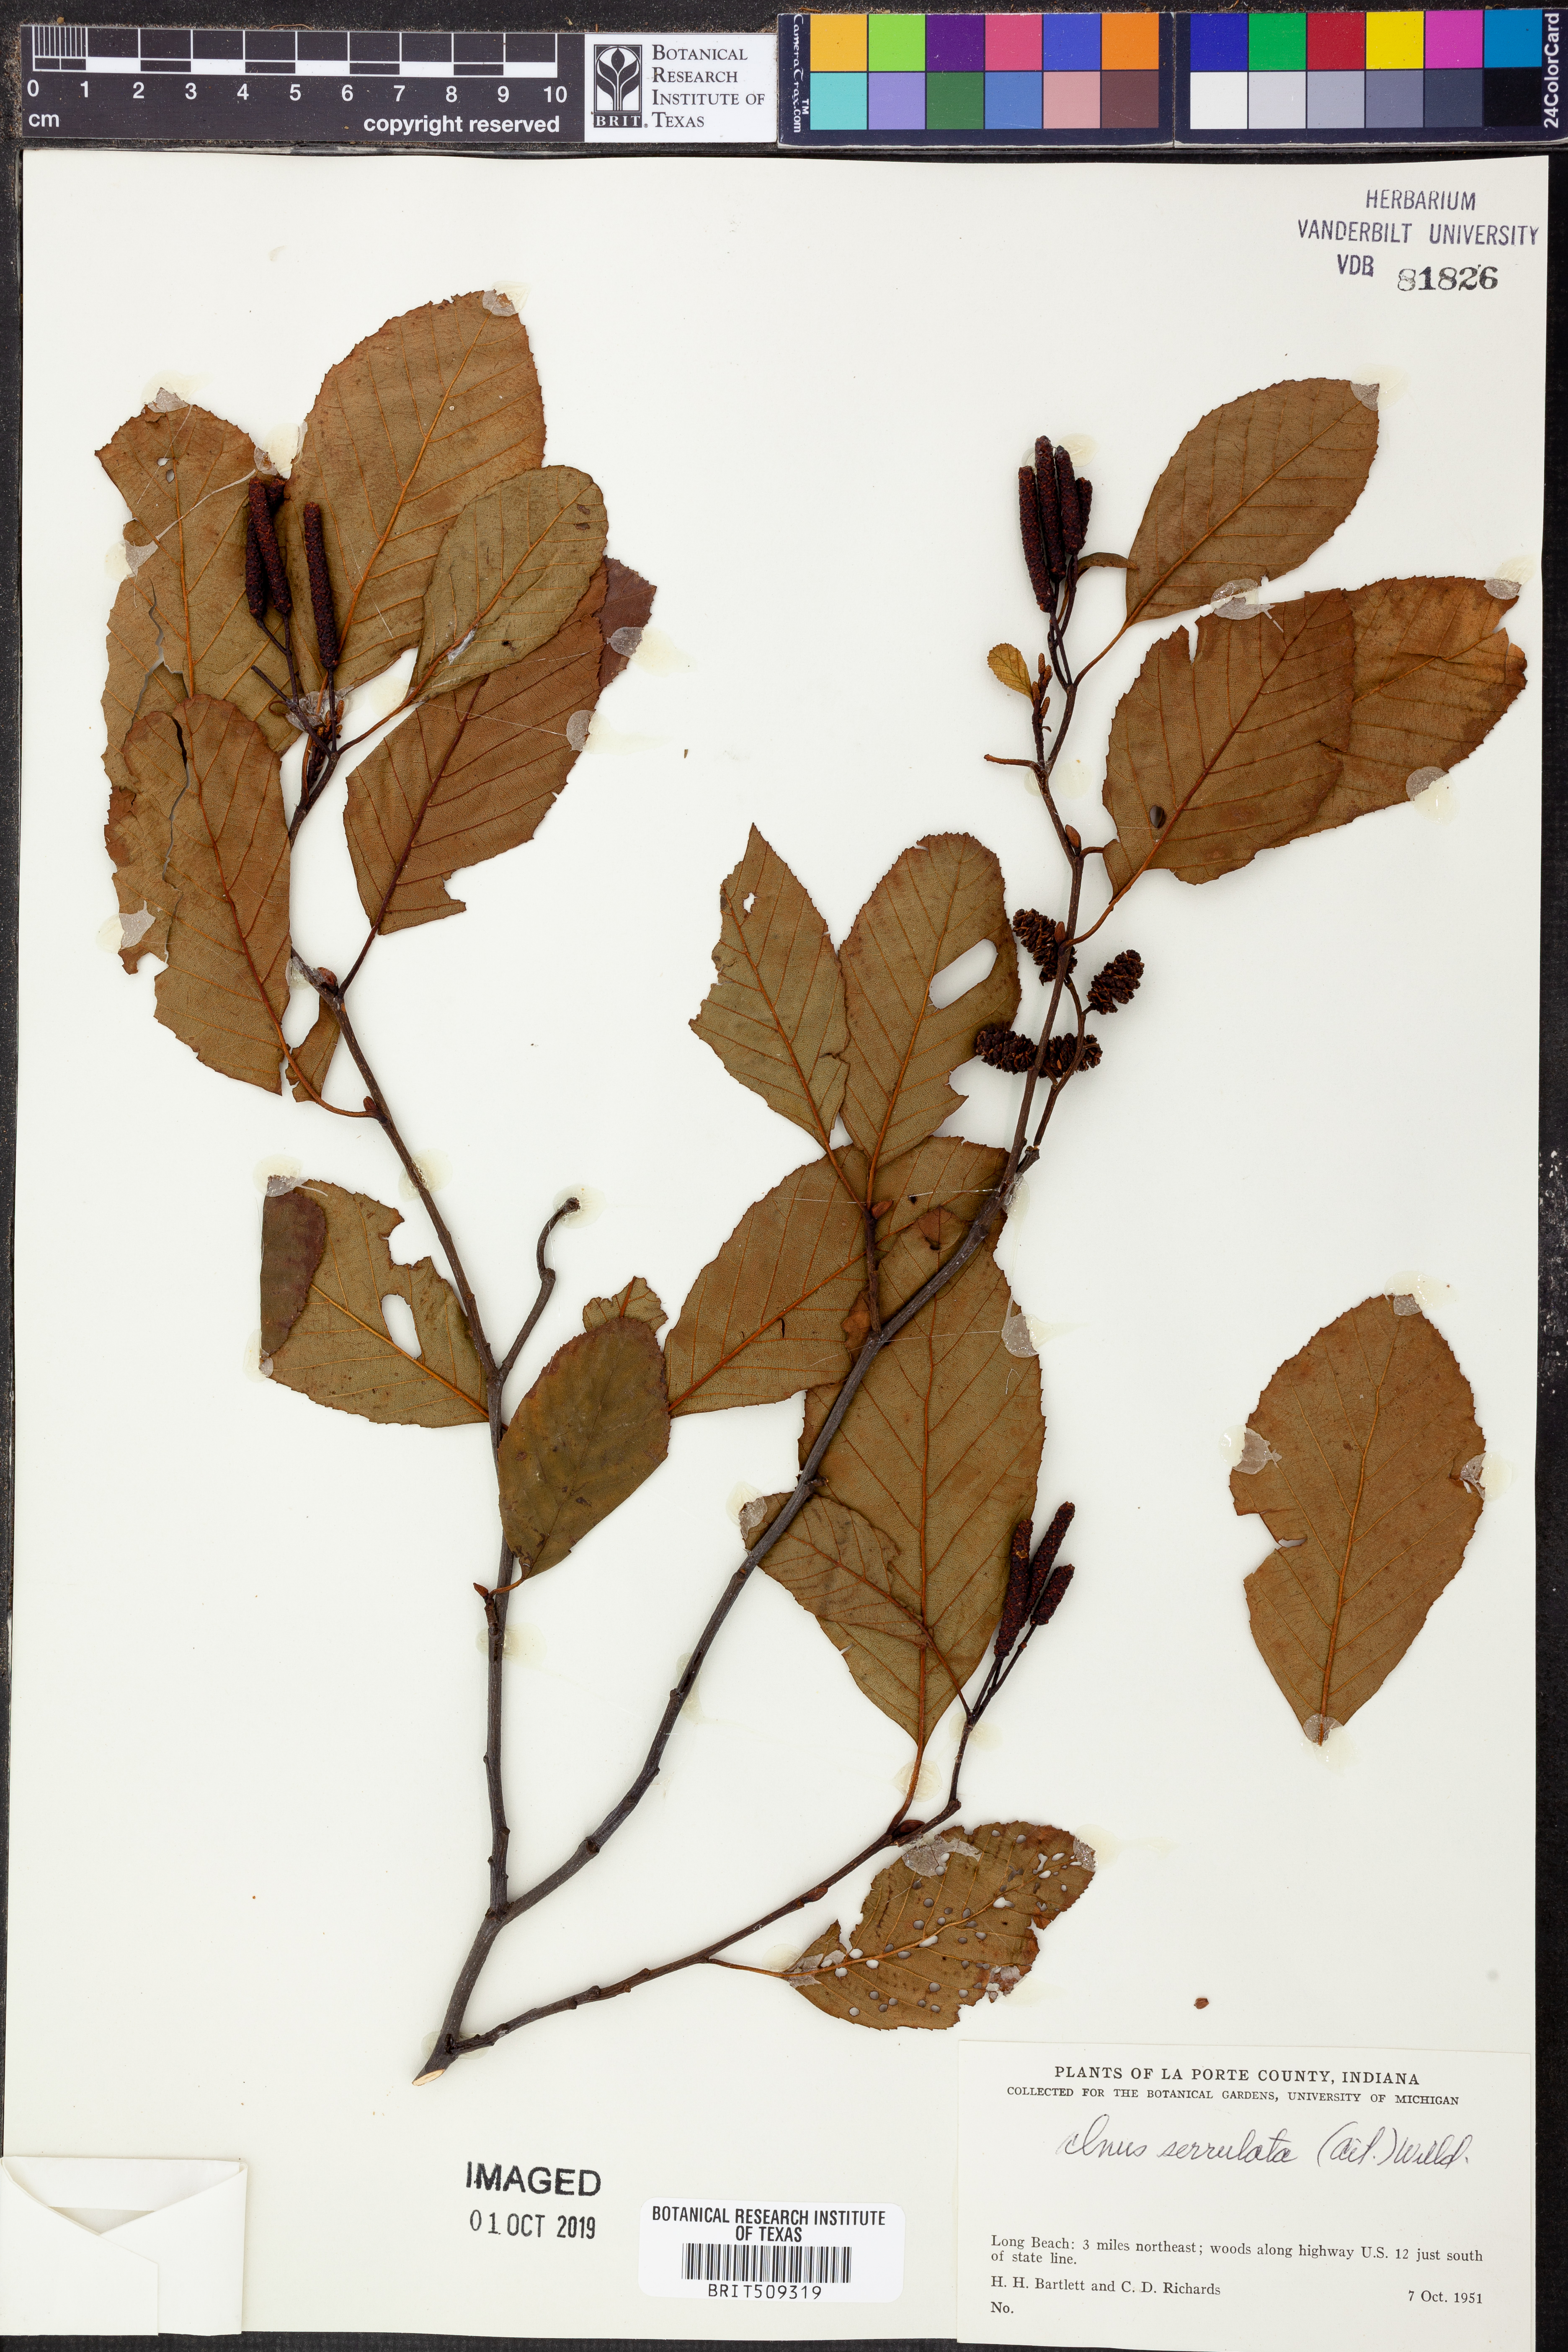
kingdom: Plantae
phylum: Tracheophyta
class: Magnoliopsida
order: Fagales
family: Betulaceae
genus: Alnus
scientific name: Alnus serrulata
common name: Hazel alder
